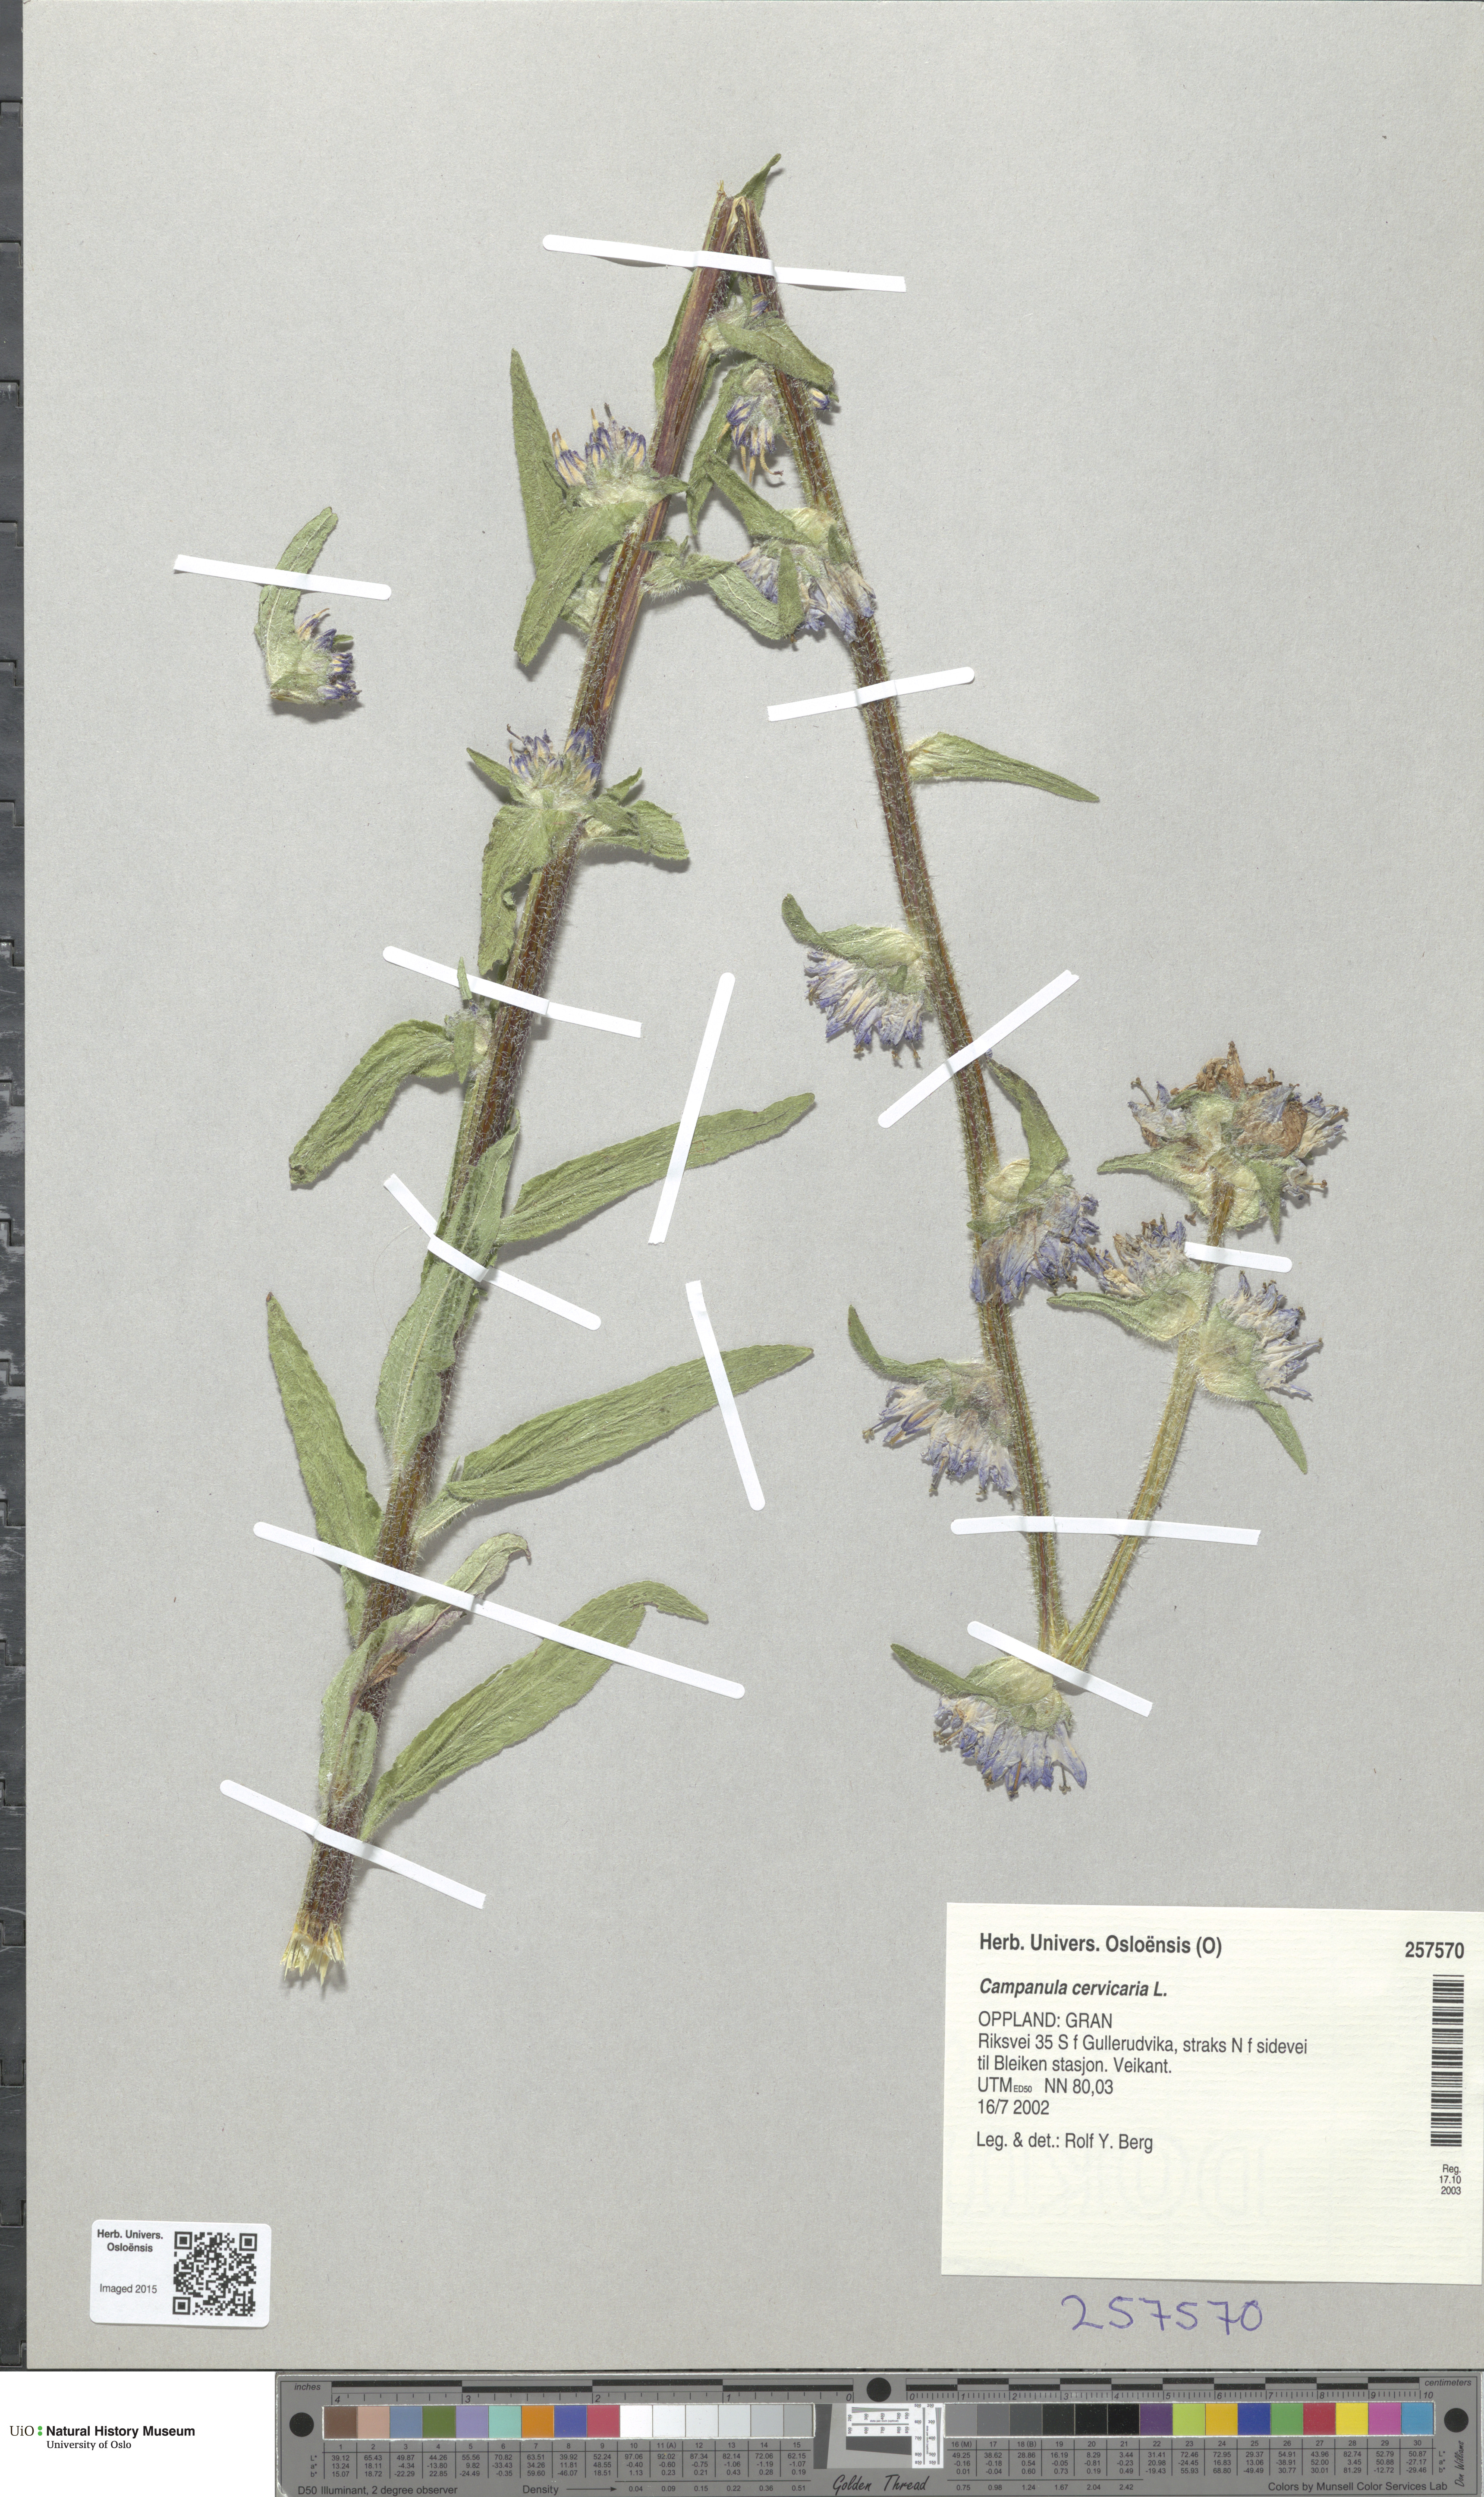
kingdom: Plantae
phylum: Tracheophyta
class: Magnoliopsida
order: Asterales
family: Campanulaceae
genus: Campanula
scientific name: Campanula cervicaria
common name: Bristly bellflower
